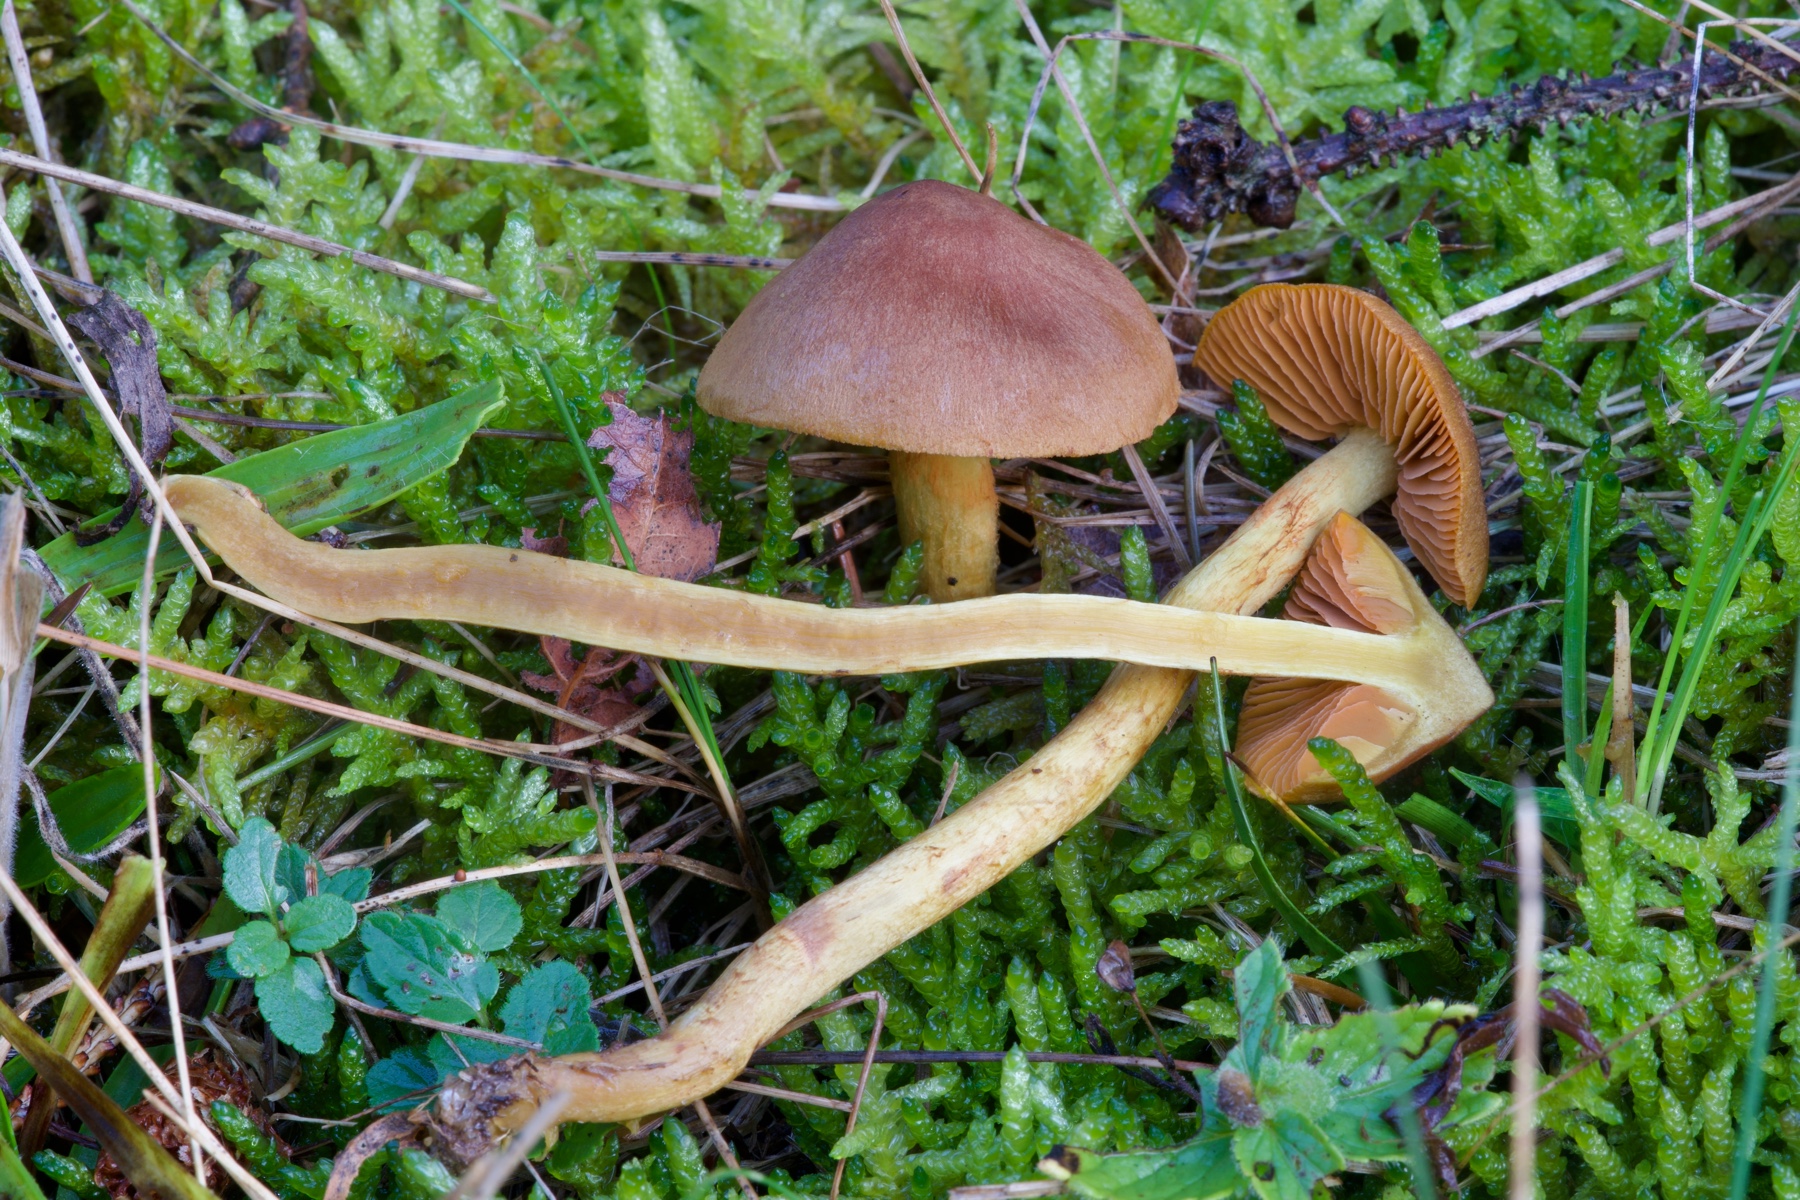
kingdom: Fungi
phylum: Basidiomycota
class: Agaricomycetes
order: Agaricales
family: Cortinariaceae
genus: Cortinarius
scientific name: Cortinarius cinnamomeus
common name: kanel-slørhat
